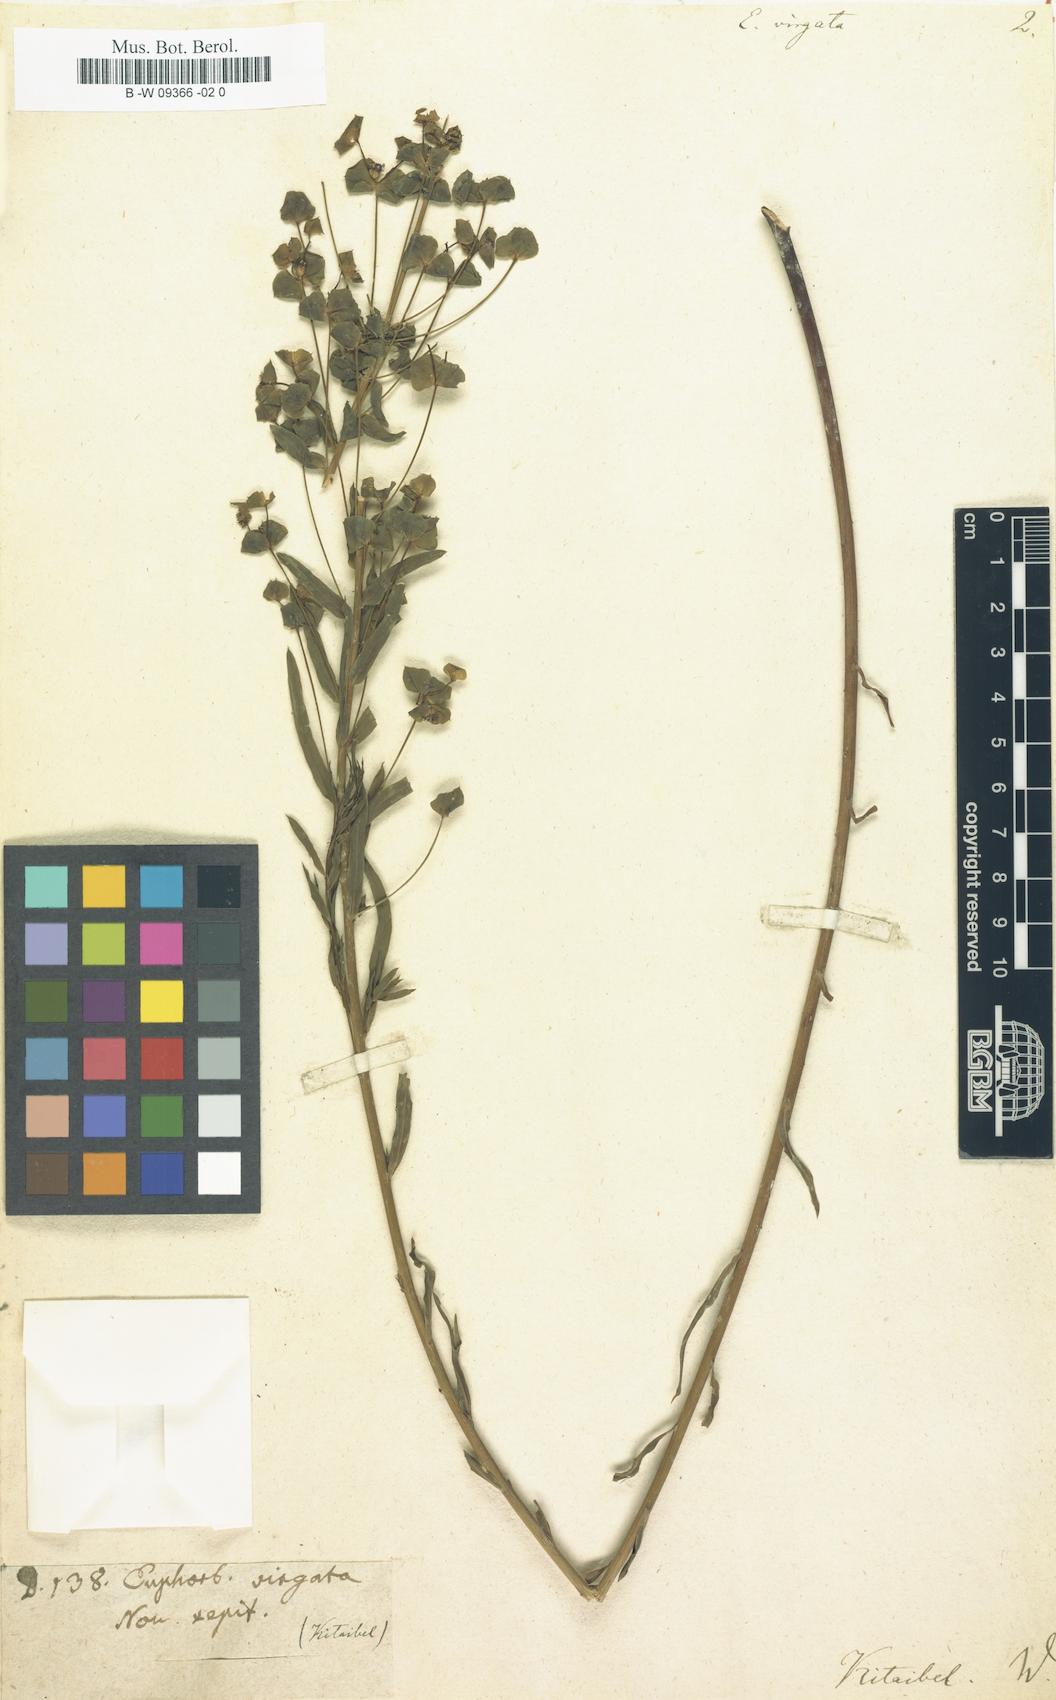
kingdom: Plantae
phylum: Tracheophyta
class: Magnoliopsida
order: Malpighiales
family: Euphorbiaceae
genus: Euphorbia
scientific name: Euphorbia virgata
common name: Leafy spurge
